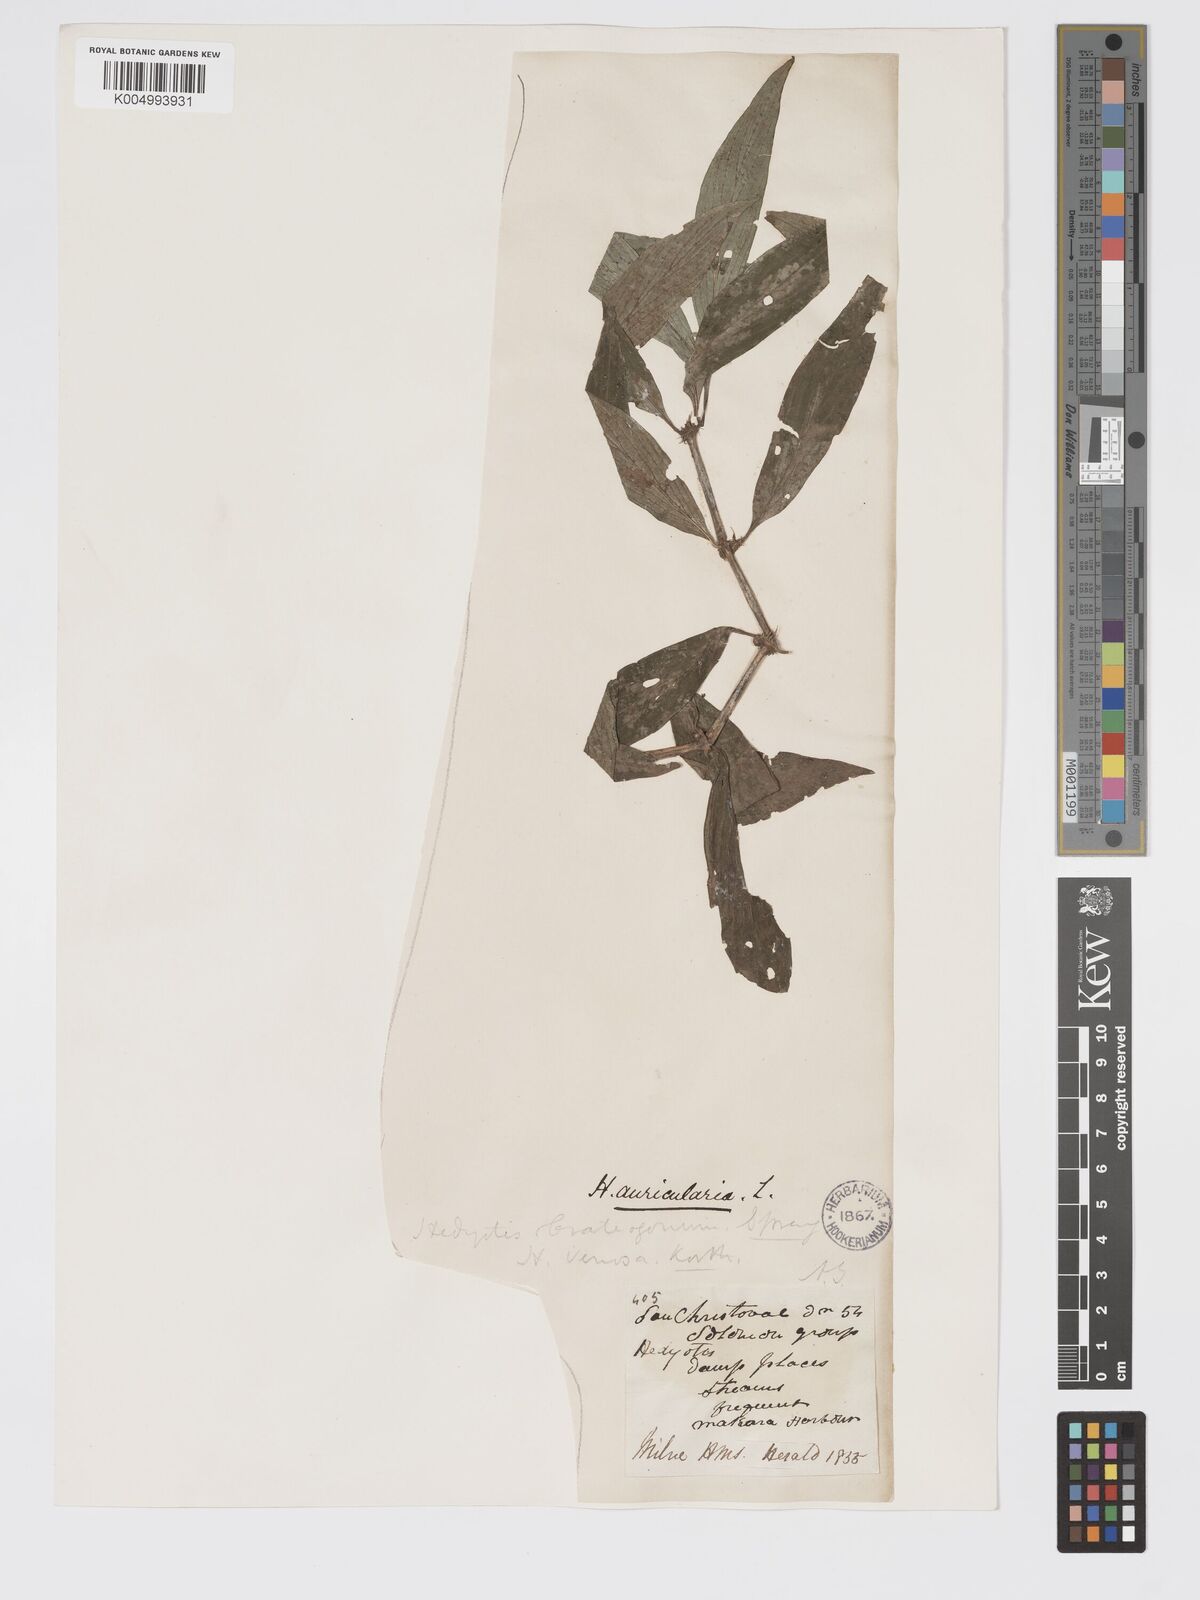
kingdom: Plantae
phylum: Tracheophyta
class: Magnoliopsida
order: Gentianales
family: Rubiaceae
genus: Exallage
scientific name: Exallage lapeyrousei
